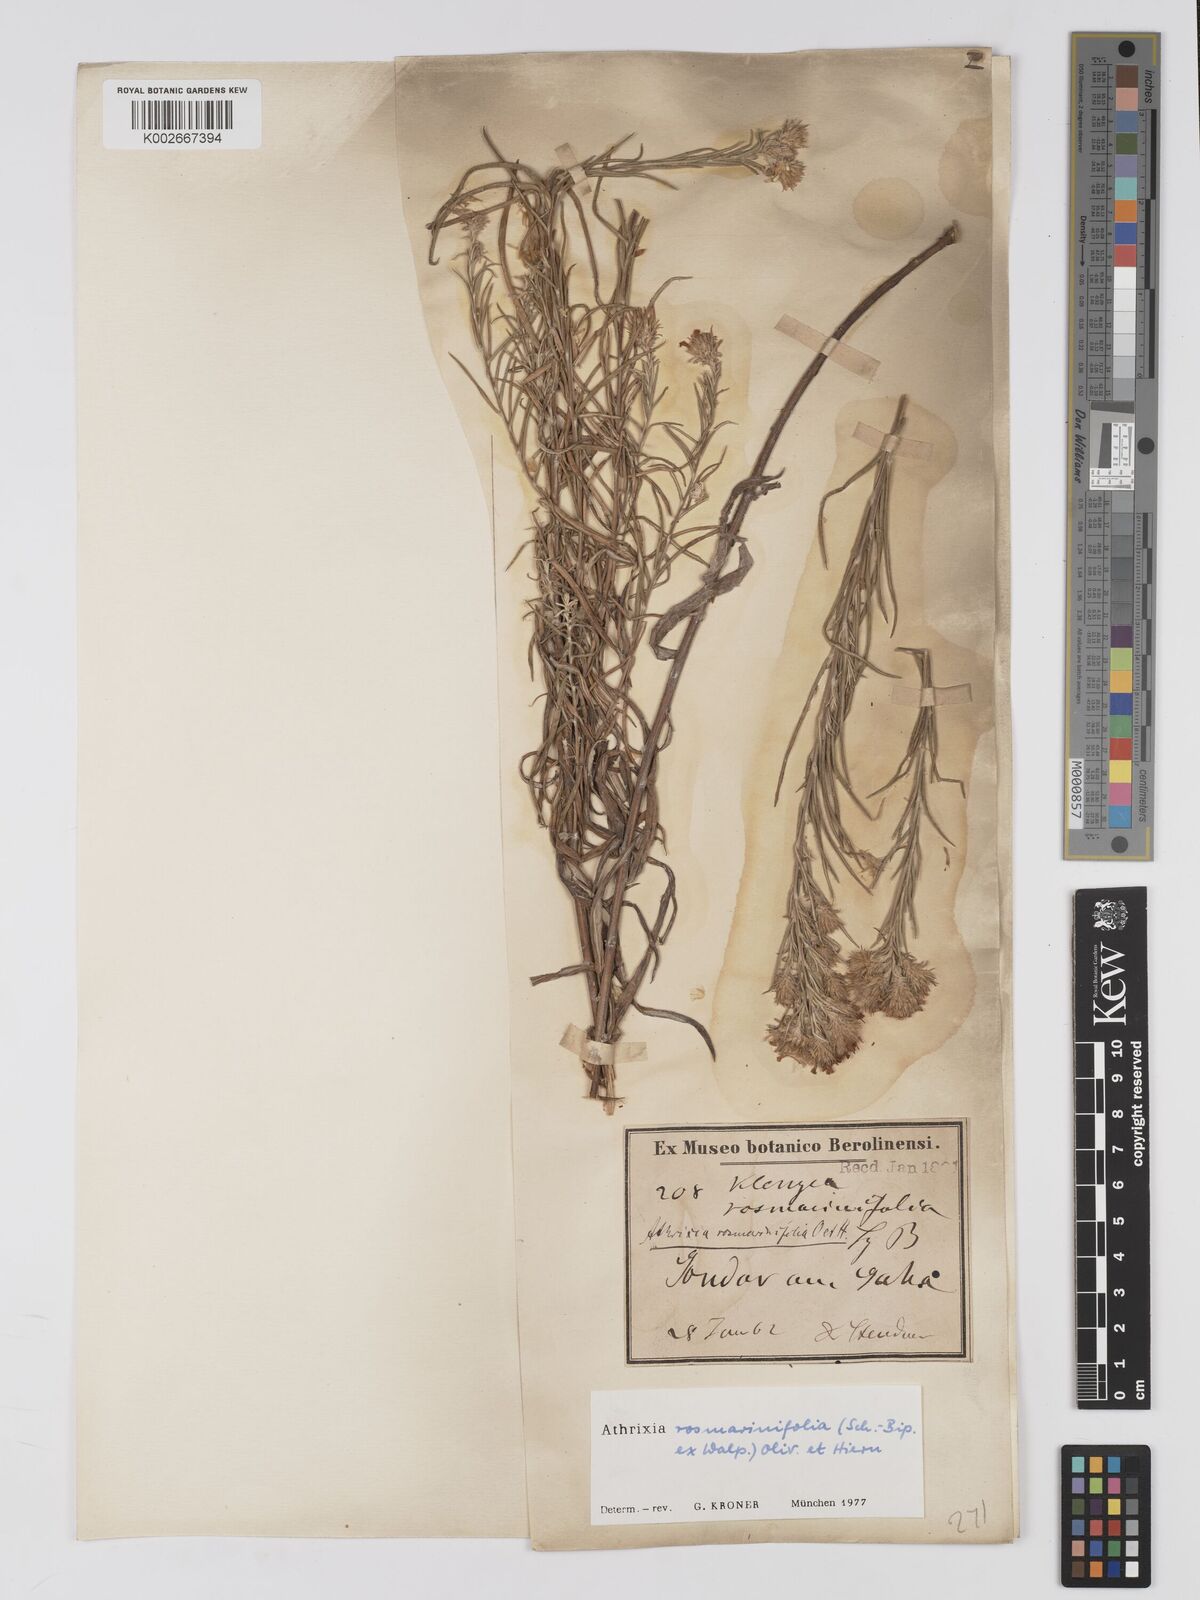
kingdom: Plantae
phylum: Tracheophyta
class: Magnoliopsida
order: Asterales
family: Asteraceae
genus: Athrixia
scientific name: Athrixia rosmarinifolia
